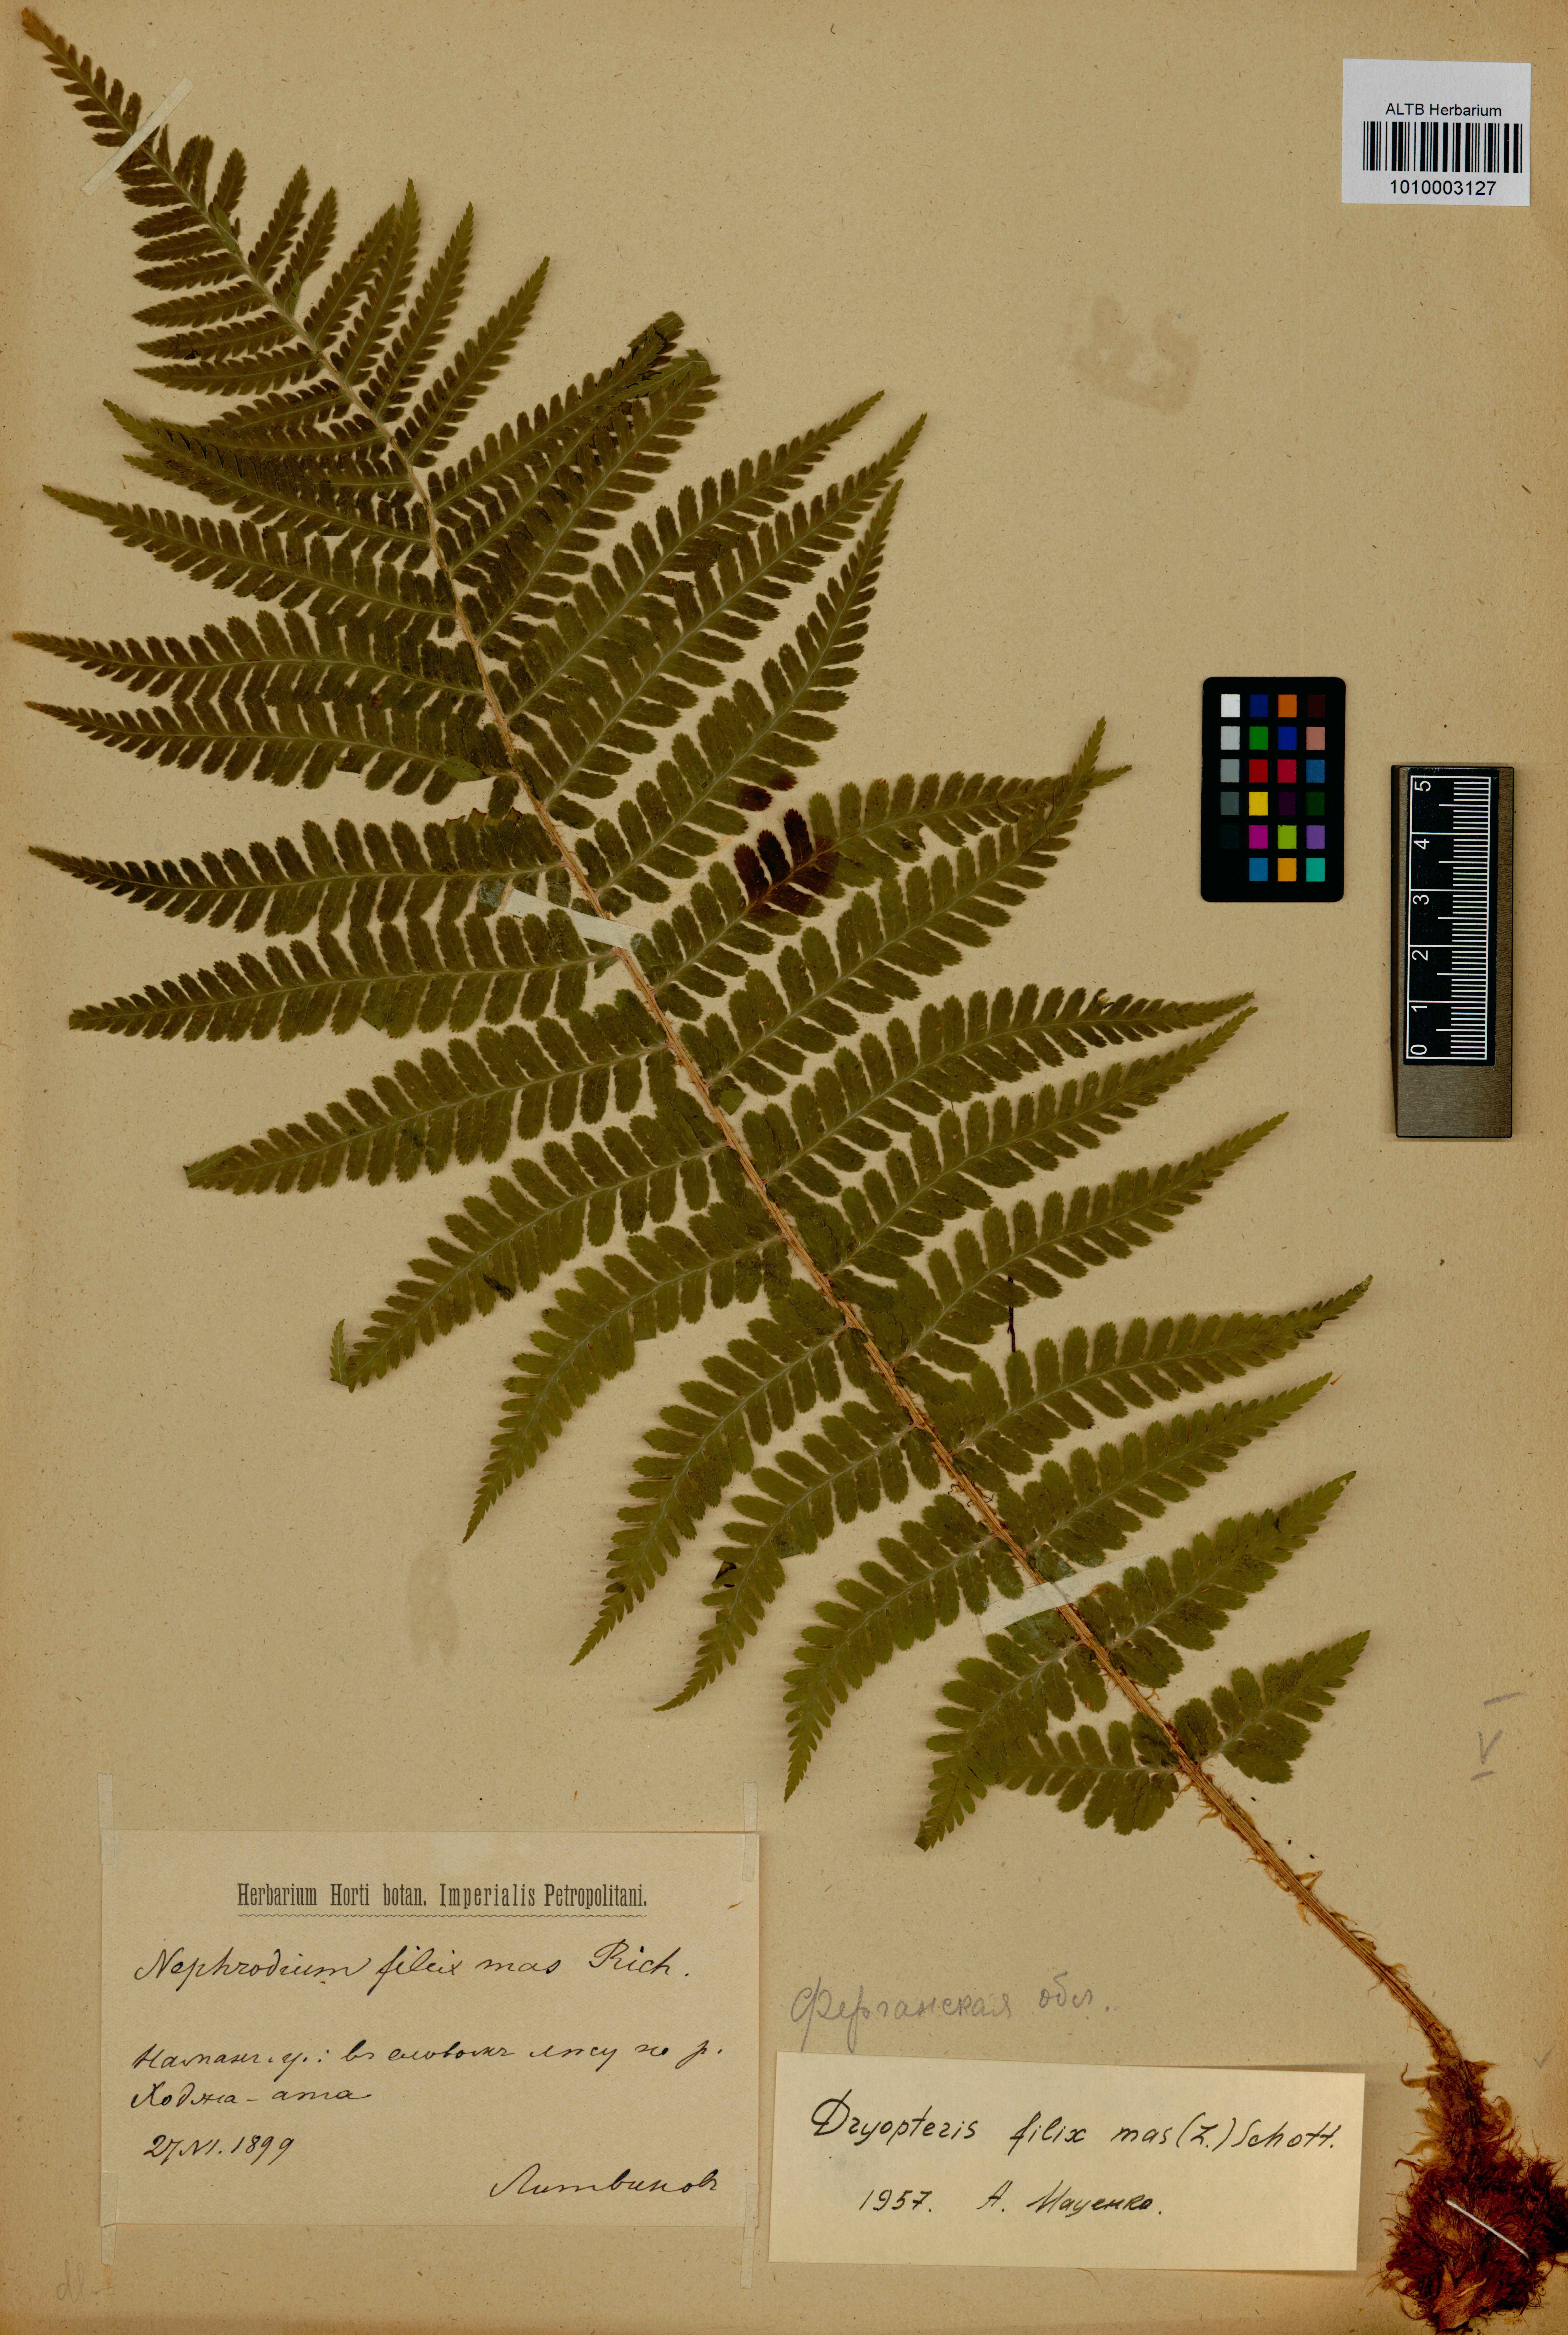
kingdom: Plantae
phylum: Tracheophyta
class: Polypodiopsida
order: Polypodiales
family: Dryopteridaceae
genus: Dryopteris
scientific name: Dryopteris filix-mas
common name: Male fern
